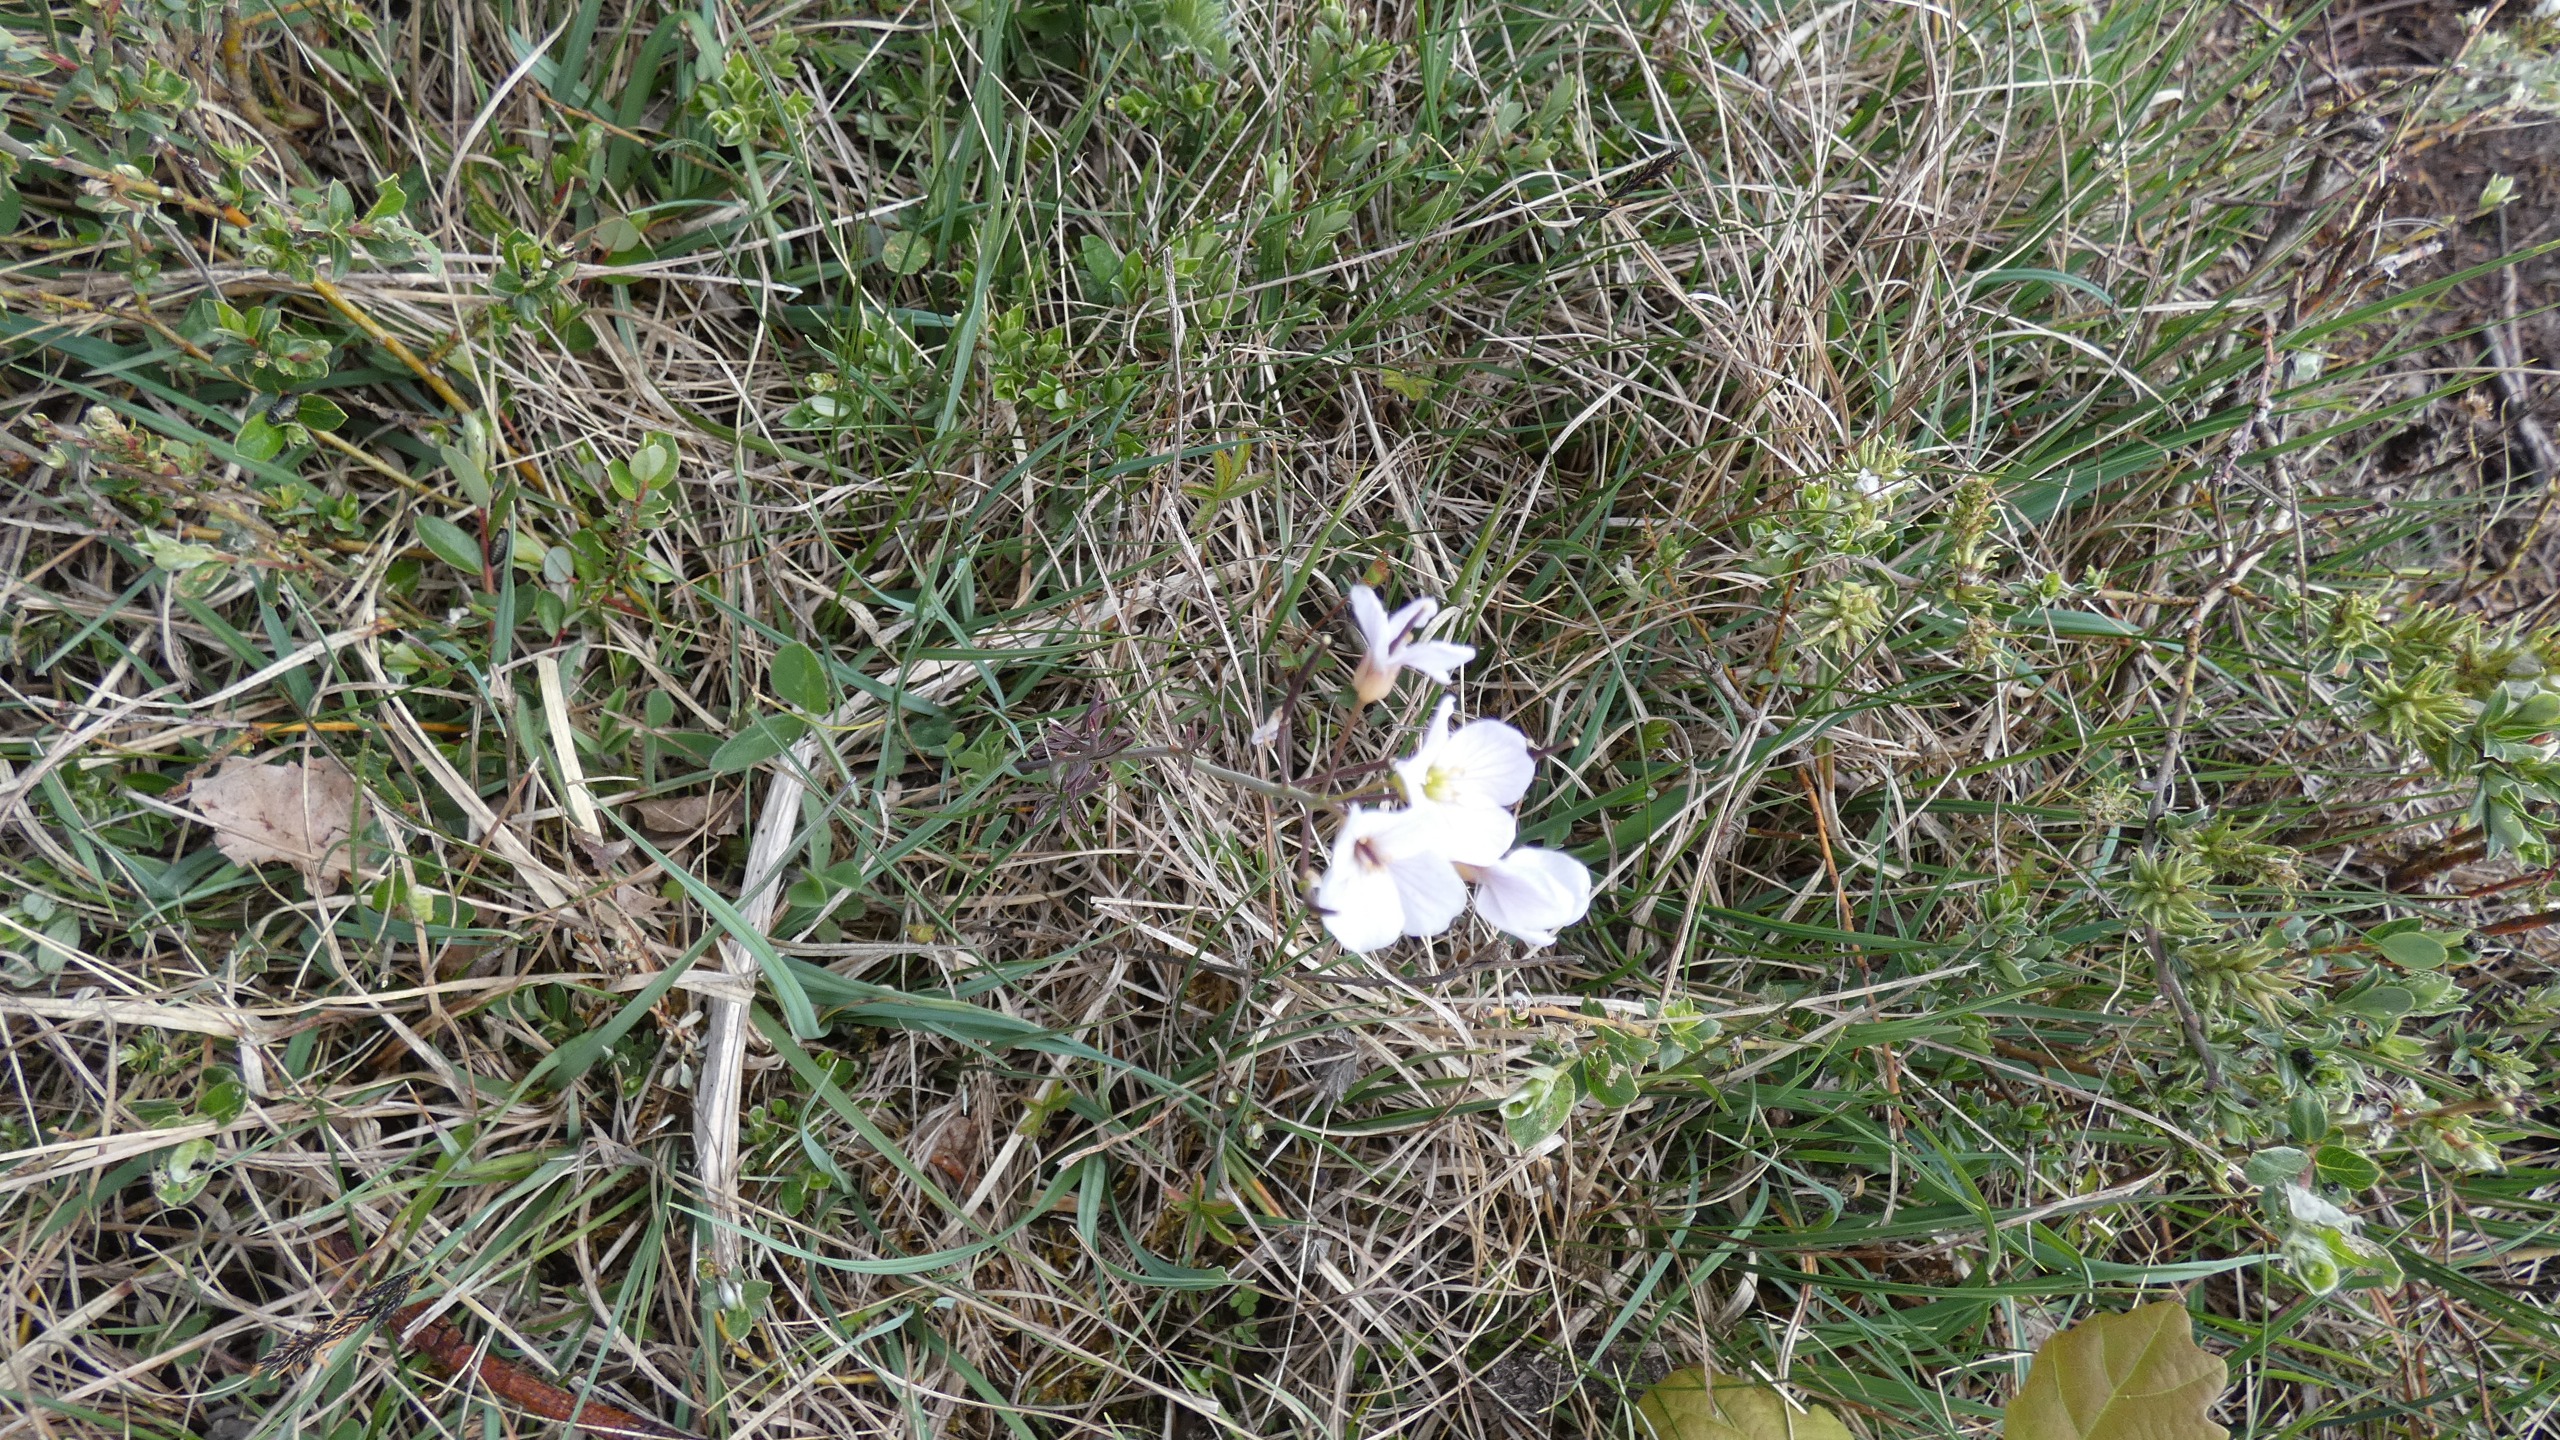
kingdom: Plantae
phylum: Tracheophyta
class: Magnoliopsida
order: Brassicales
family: Brassicaceae
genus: Cardamine
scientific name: Cardamine pratensis
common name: Engkarse
